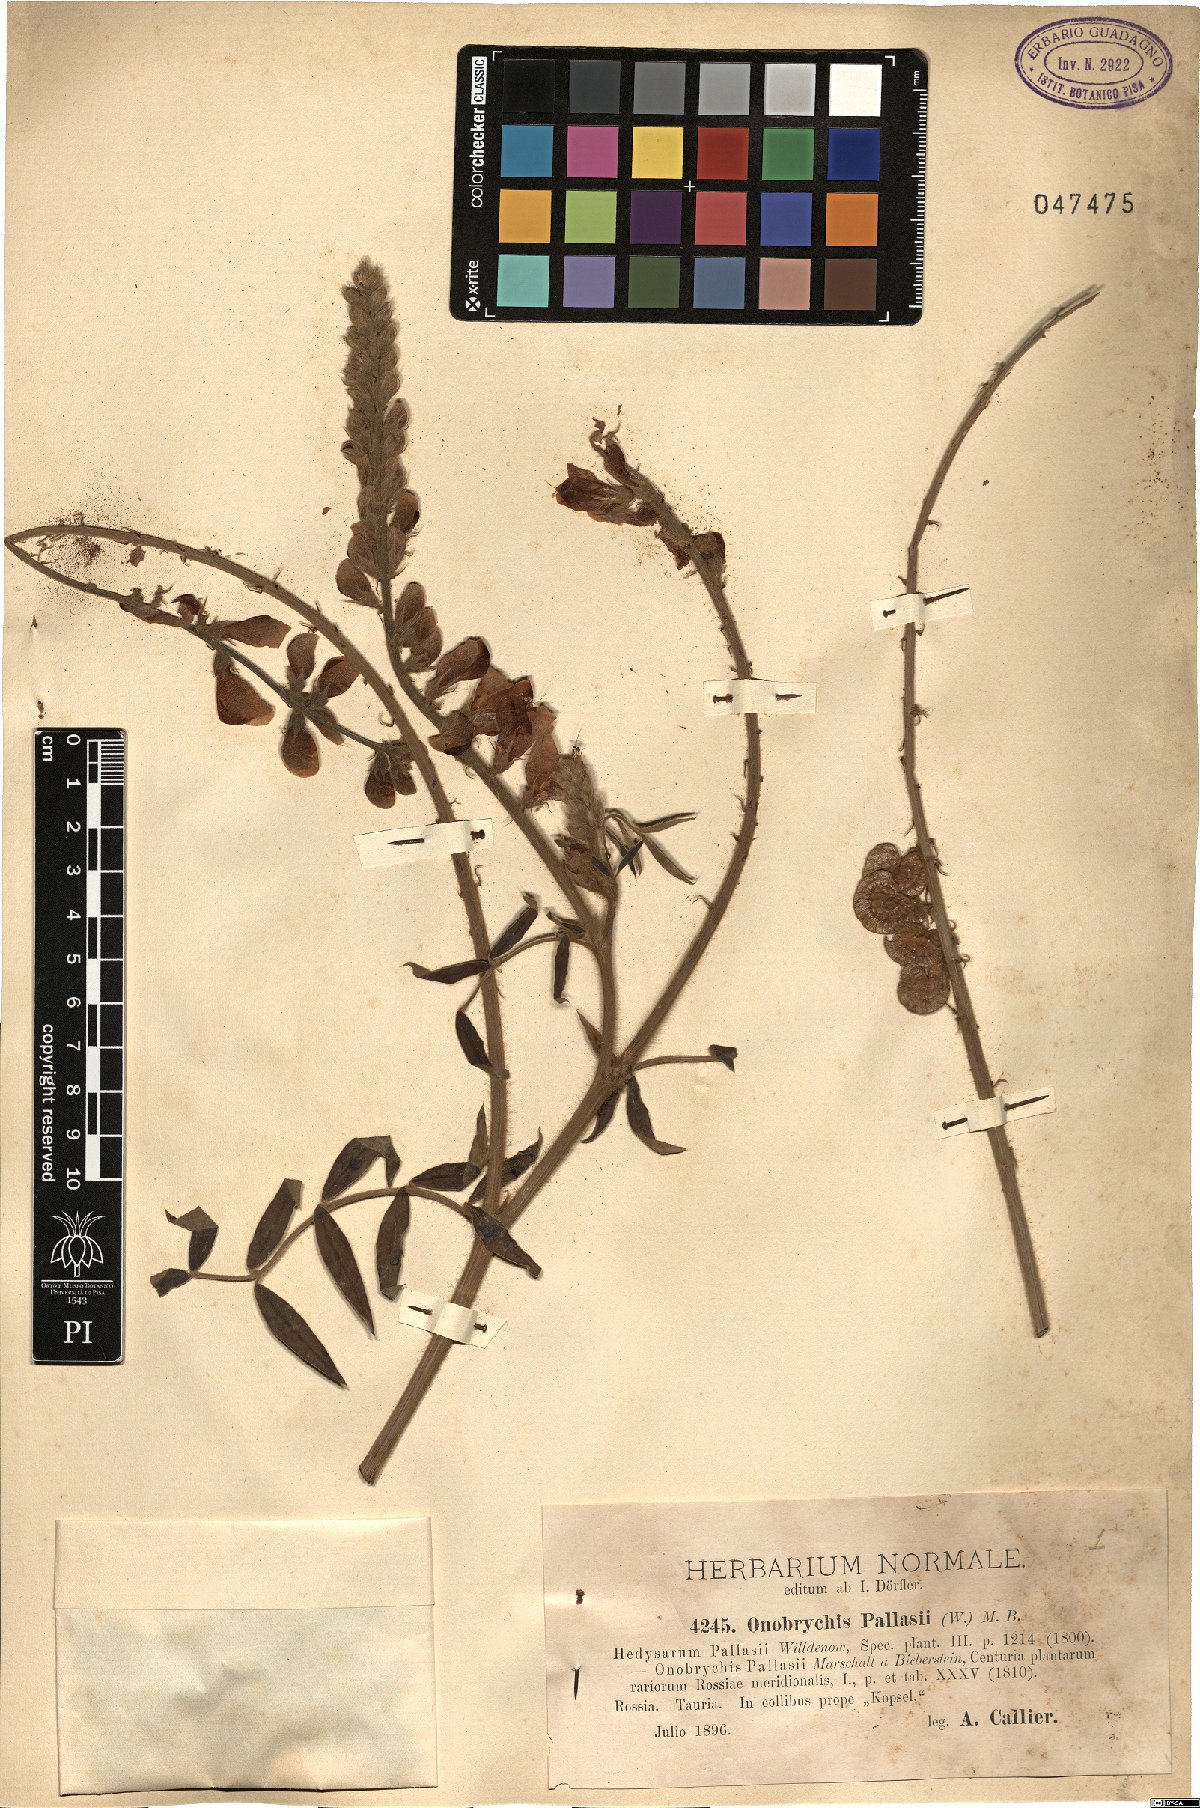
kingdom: Plantae
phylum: Tracheophyta
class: Magnoliopsida
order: Fabales
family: Fabaceae
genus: Onobrychis
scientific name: Onobrychis pallasii
